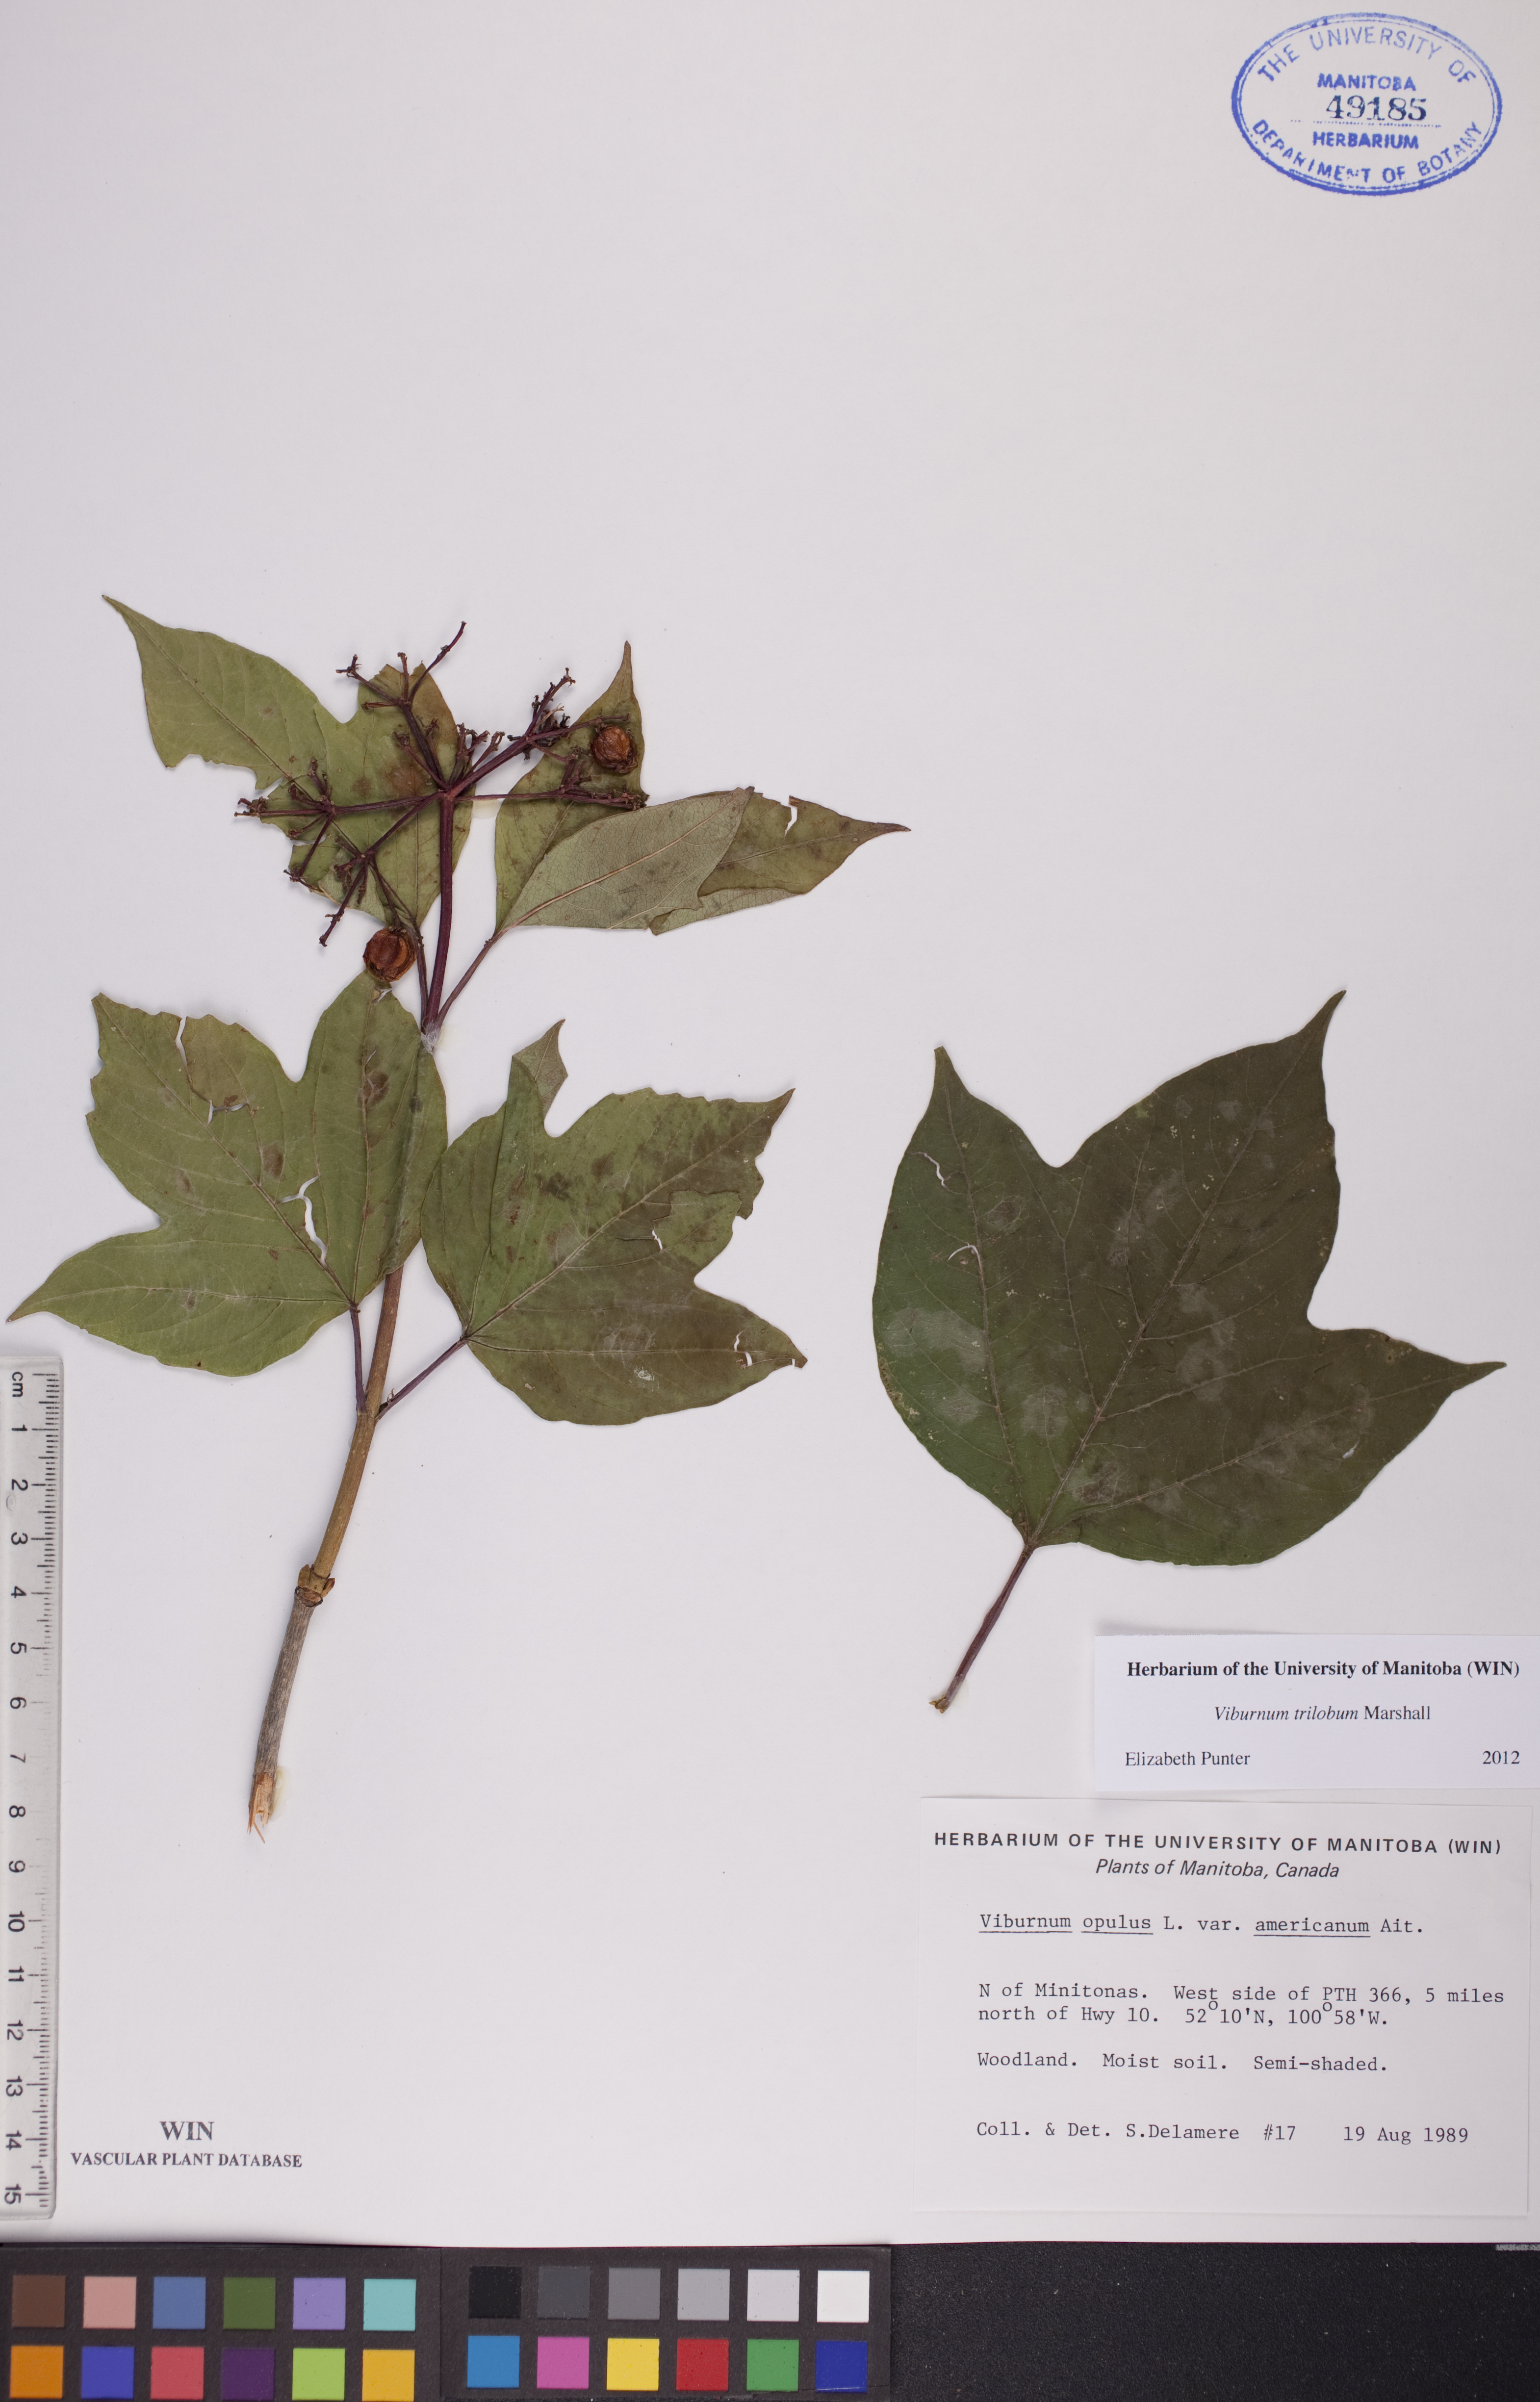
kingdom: Plantae
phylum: Tracheophyta
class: Magnoliopsida
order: Dipsacales
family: Viburnaceae
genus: Viburnum
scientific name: Viburnum trilobum
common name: American cranberrybush
